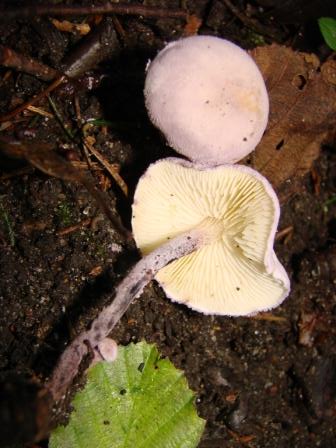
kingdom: Fungi
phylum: Basidiomycota
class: Agaricomycetes
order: Agaricales
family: Agaricaceae
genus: Cystolepiota
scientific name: Cystolepiota bucknallii
